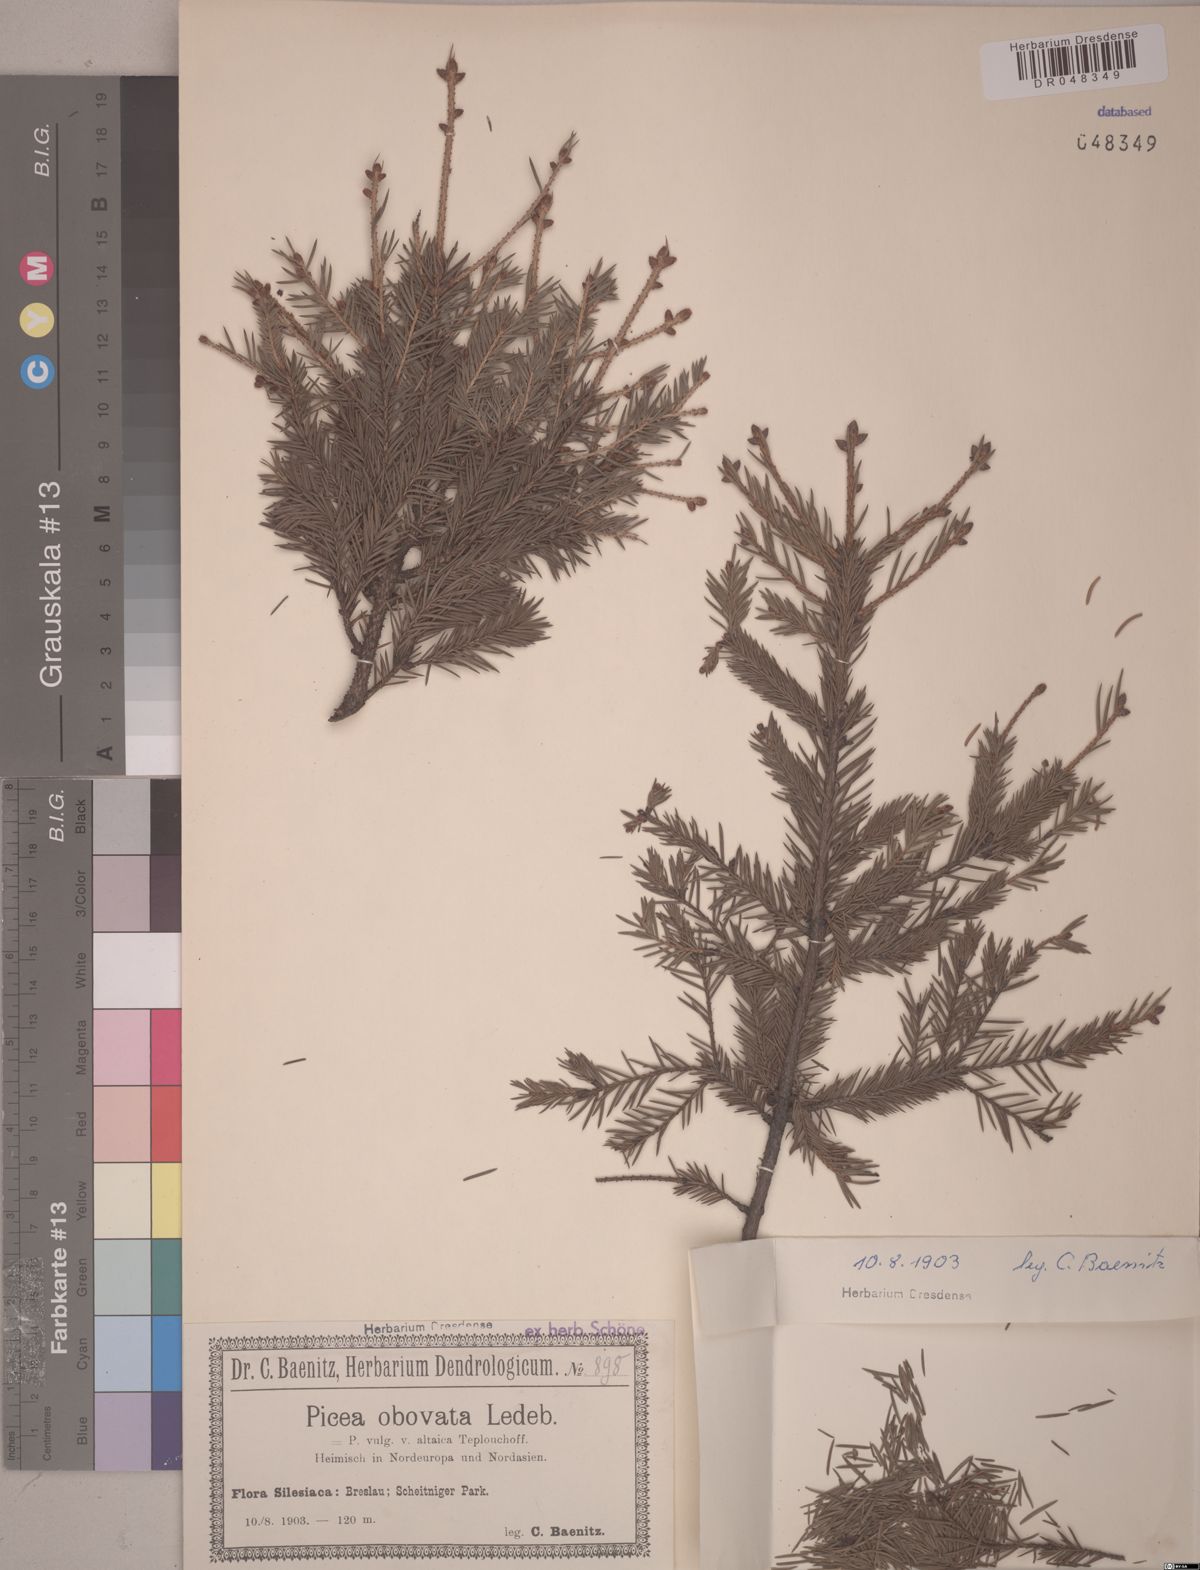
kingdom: Plantae
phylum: Tracheophyta
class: Pinopsida
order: Pinales
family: Pinaceae
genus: Picea
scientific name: Picea obovata
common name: Siberian spruce
